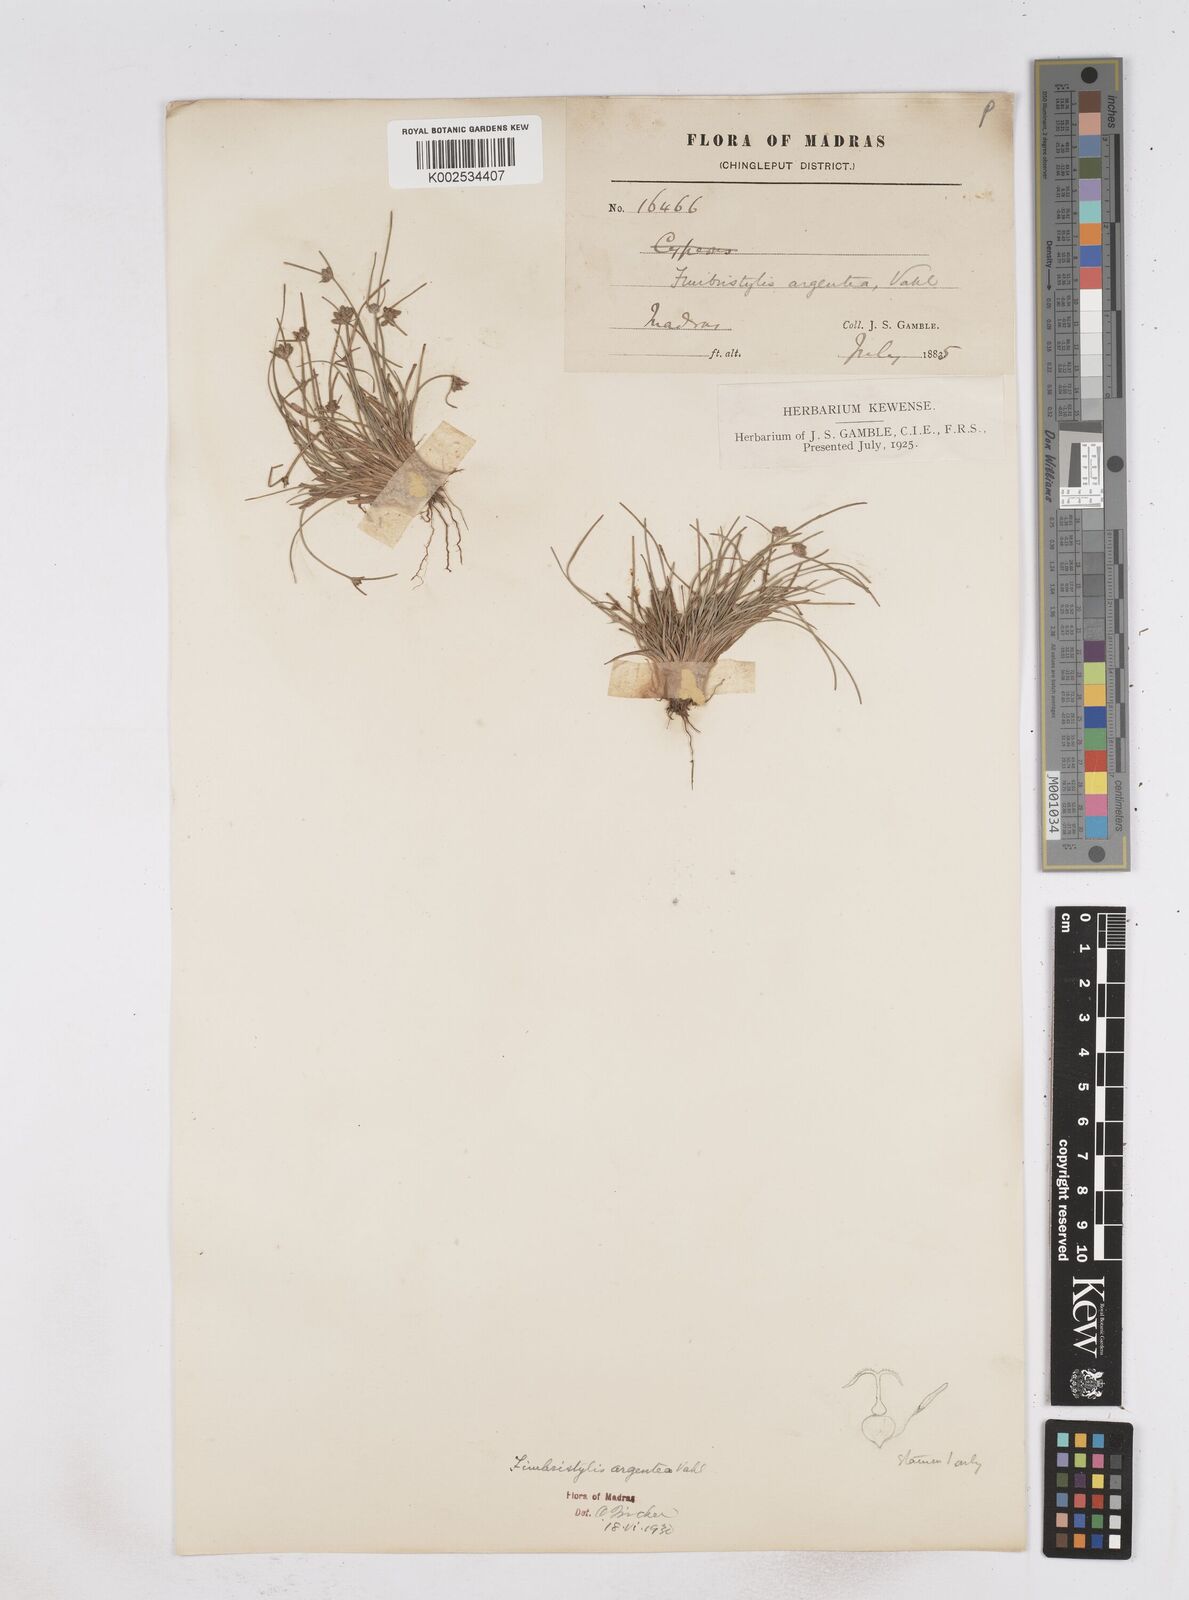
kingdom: Plantae
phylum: Tracheophyta
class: Liliopsida
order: Poales
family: Cyperaceae
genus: Fimbristylis
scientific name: Fimbristylis argentea
